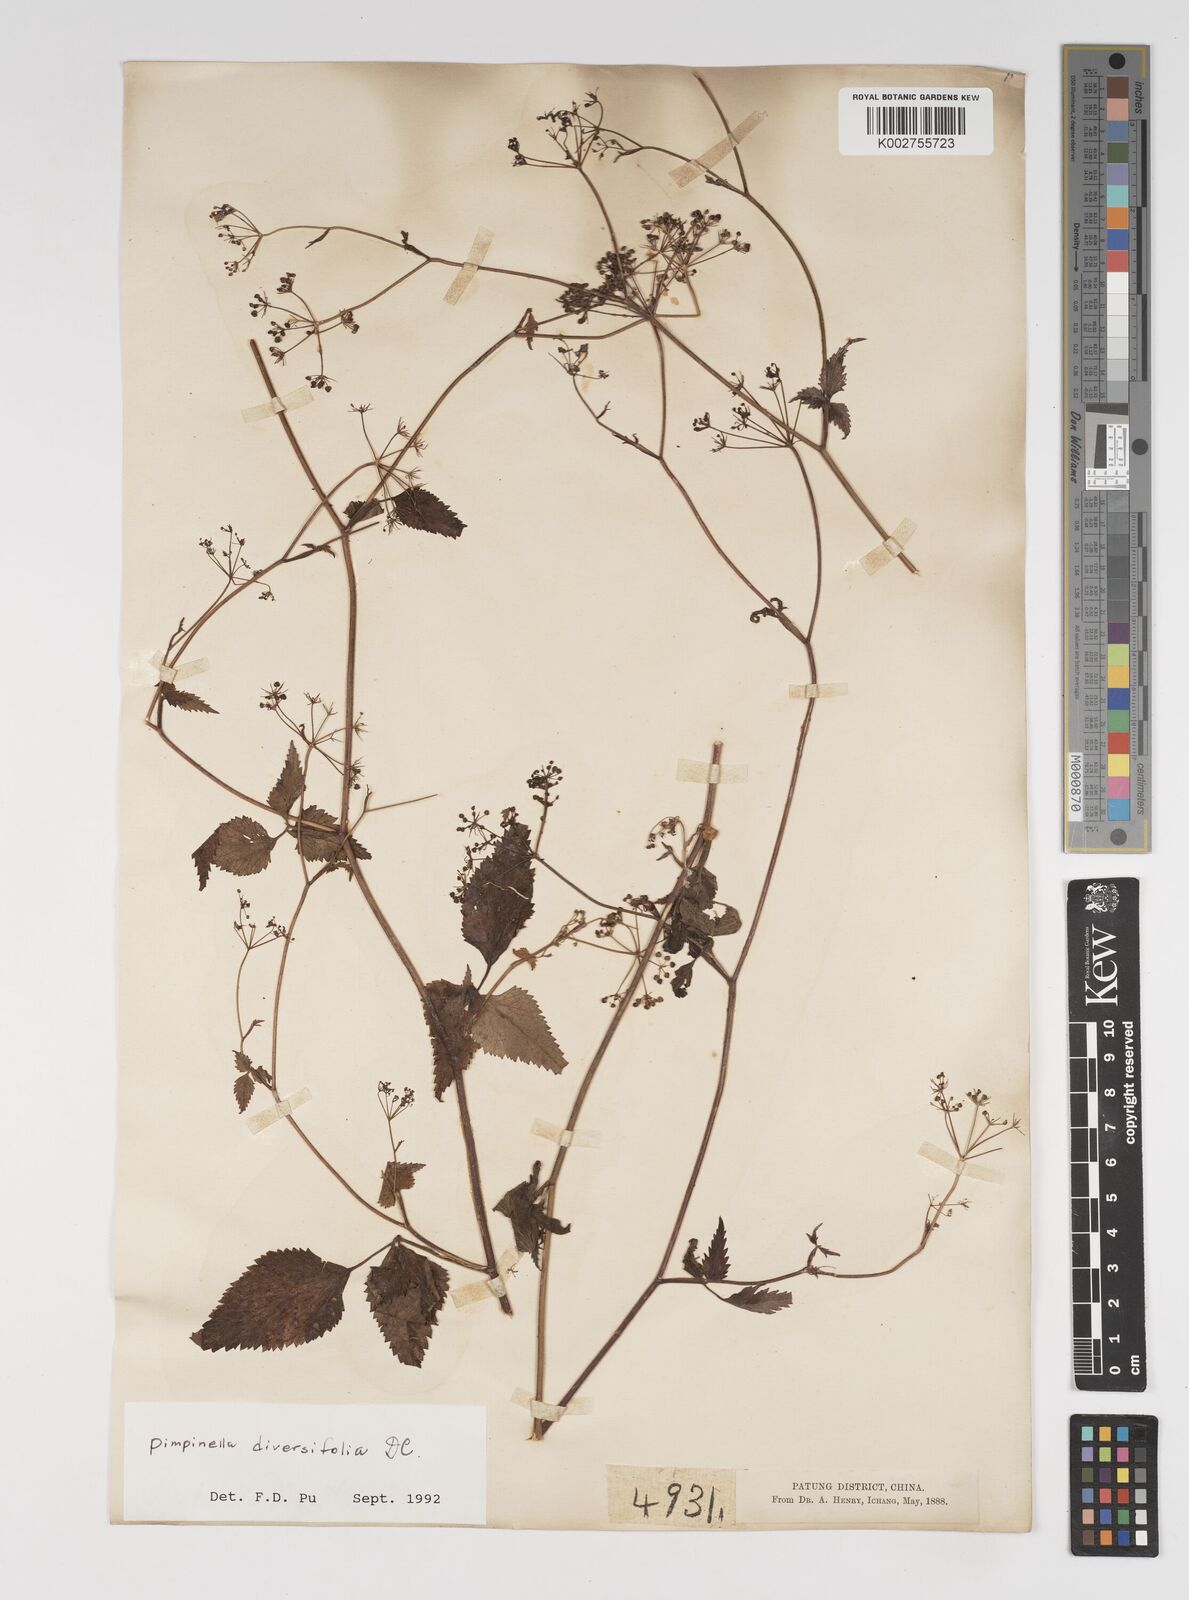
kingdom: Plantae
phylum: Tracheophyta
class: Magnoliopsida
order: Apiales
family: Apiaceae
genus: Pimpinella
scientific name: Pimpinella diversifolia
